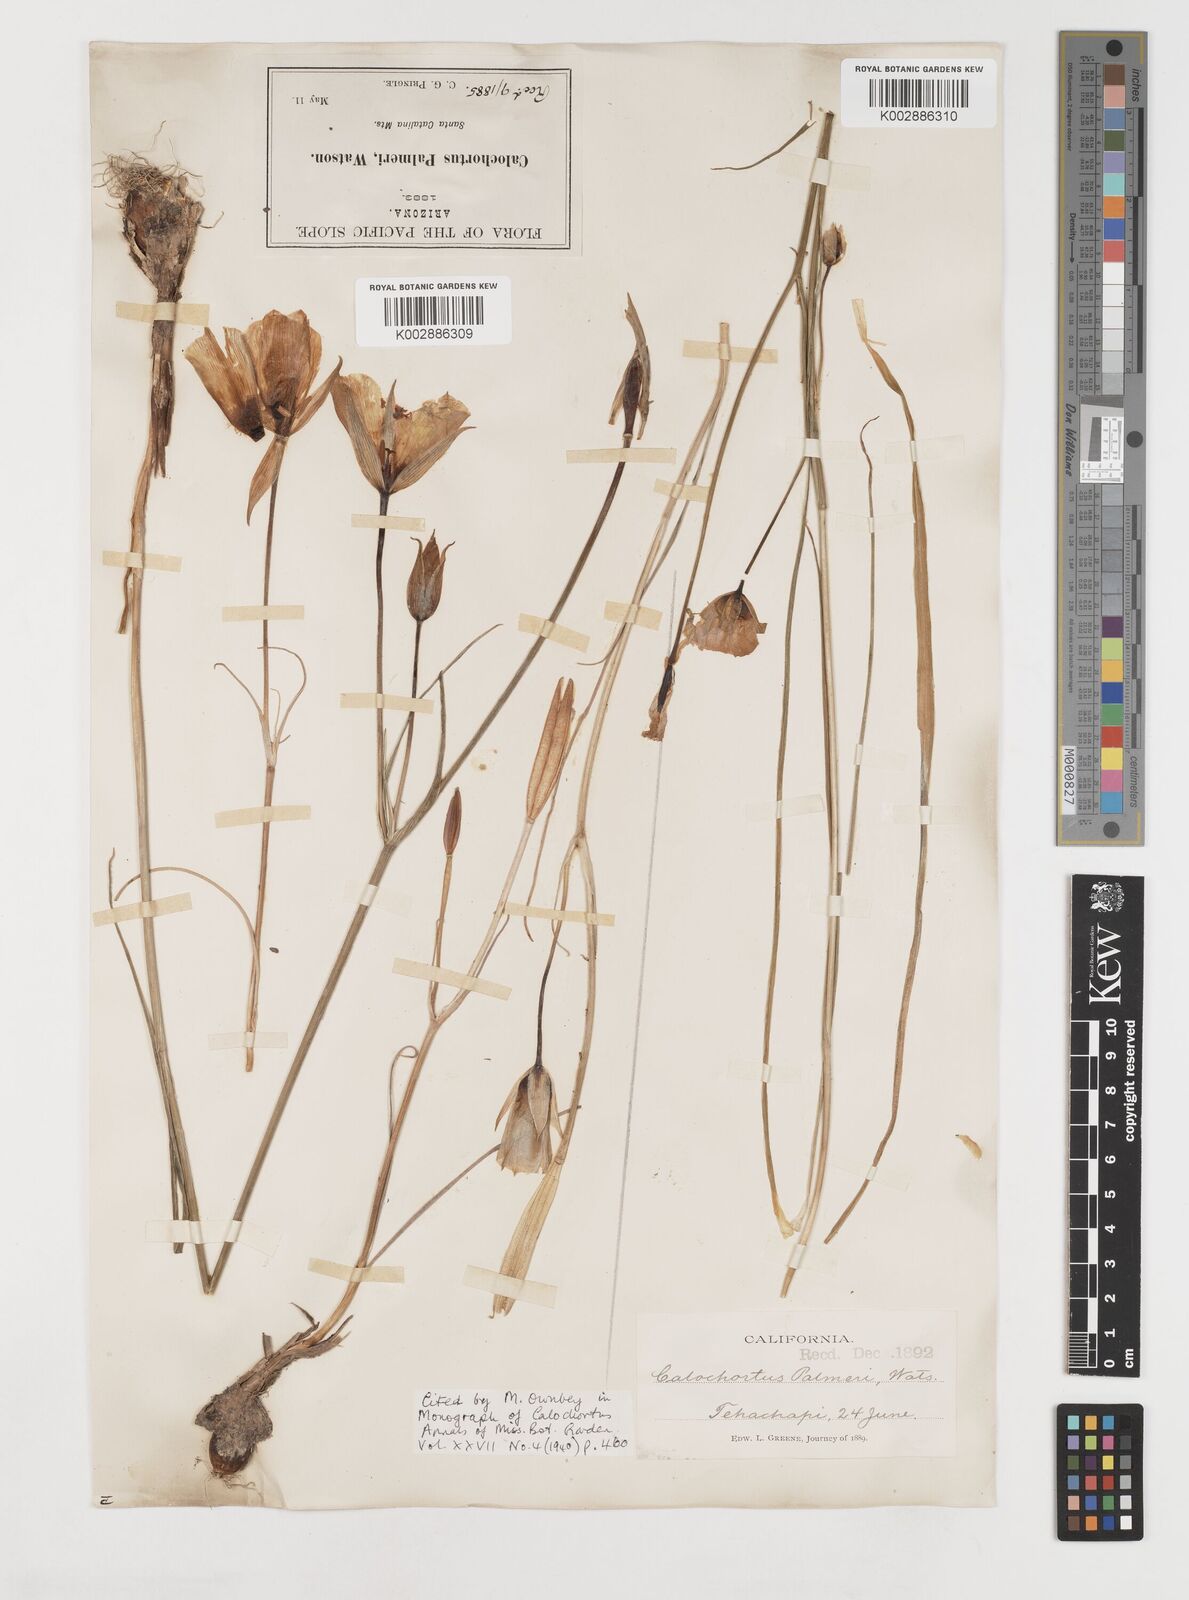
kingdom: Plantae
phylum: Tracheophyta
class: Liliopsida
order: Liliales
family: Liliaceae
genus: Calochortus
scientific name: Calochortus palmeri
